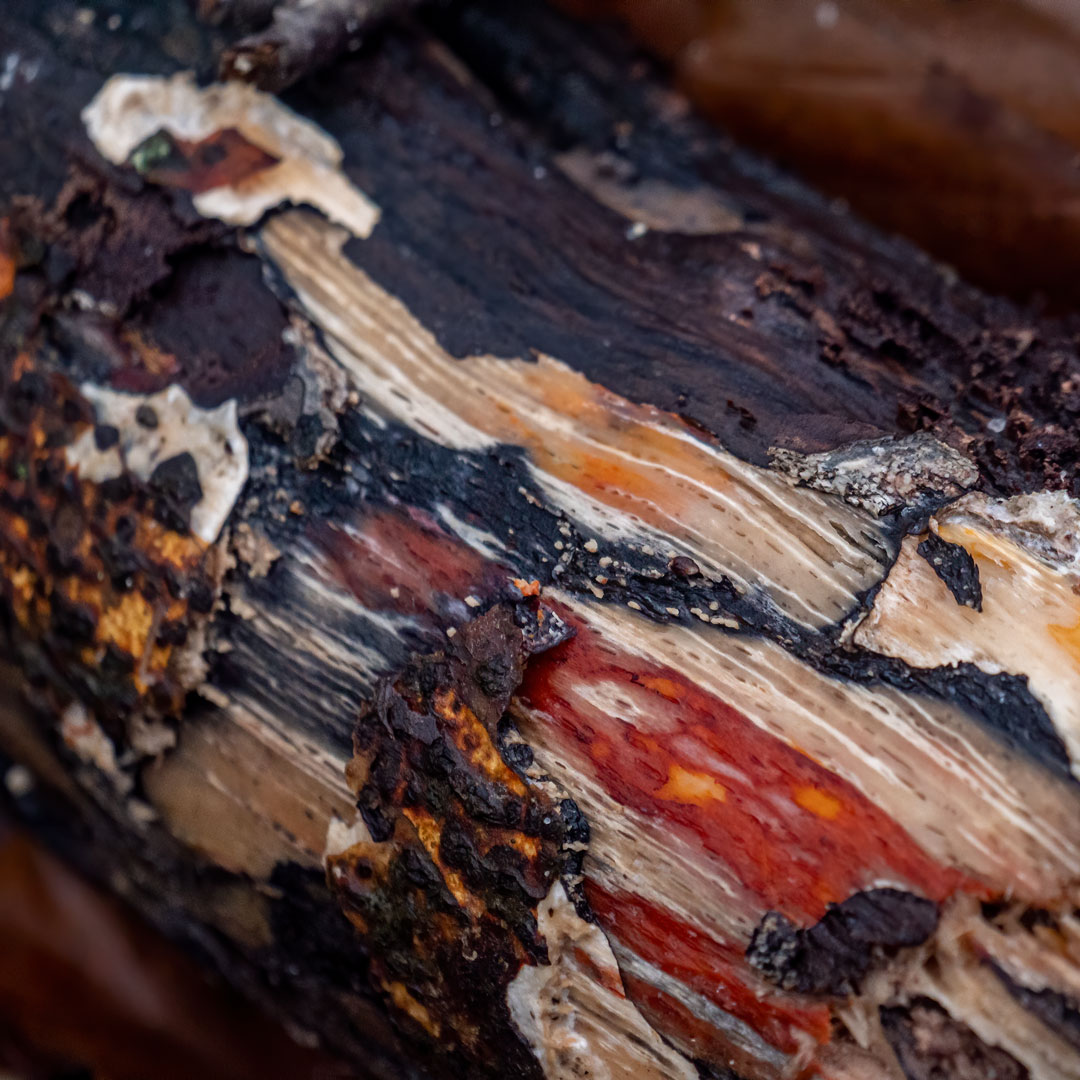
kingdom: Fungi
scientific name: Fungi
